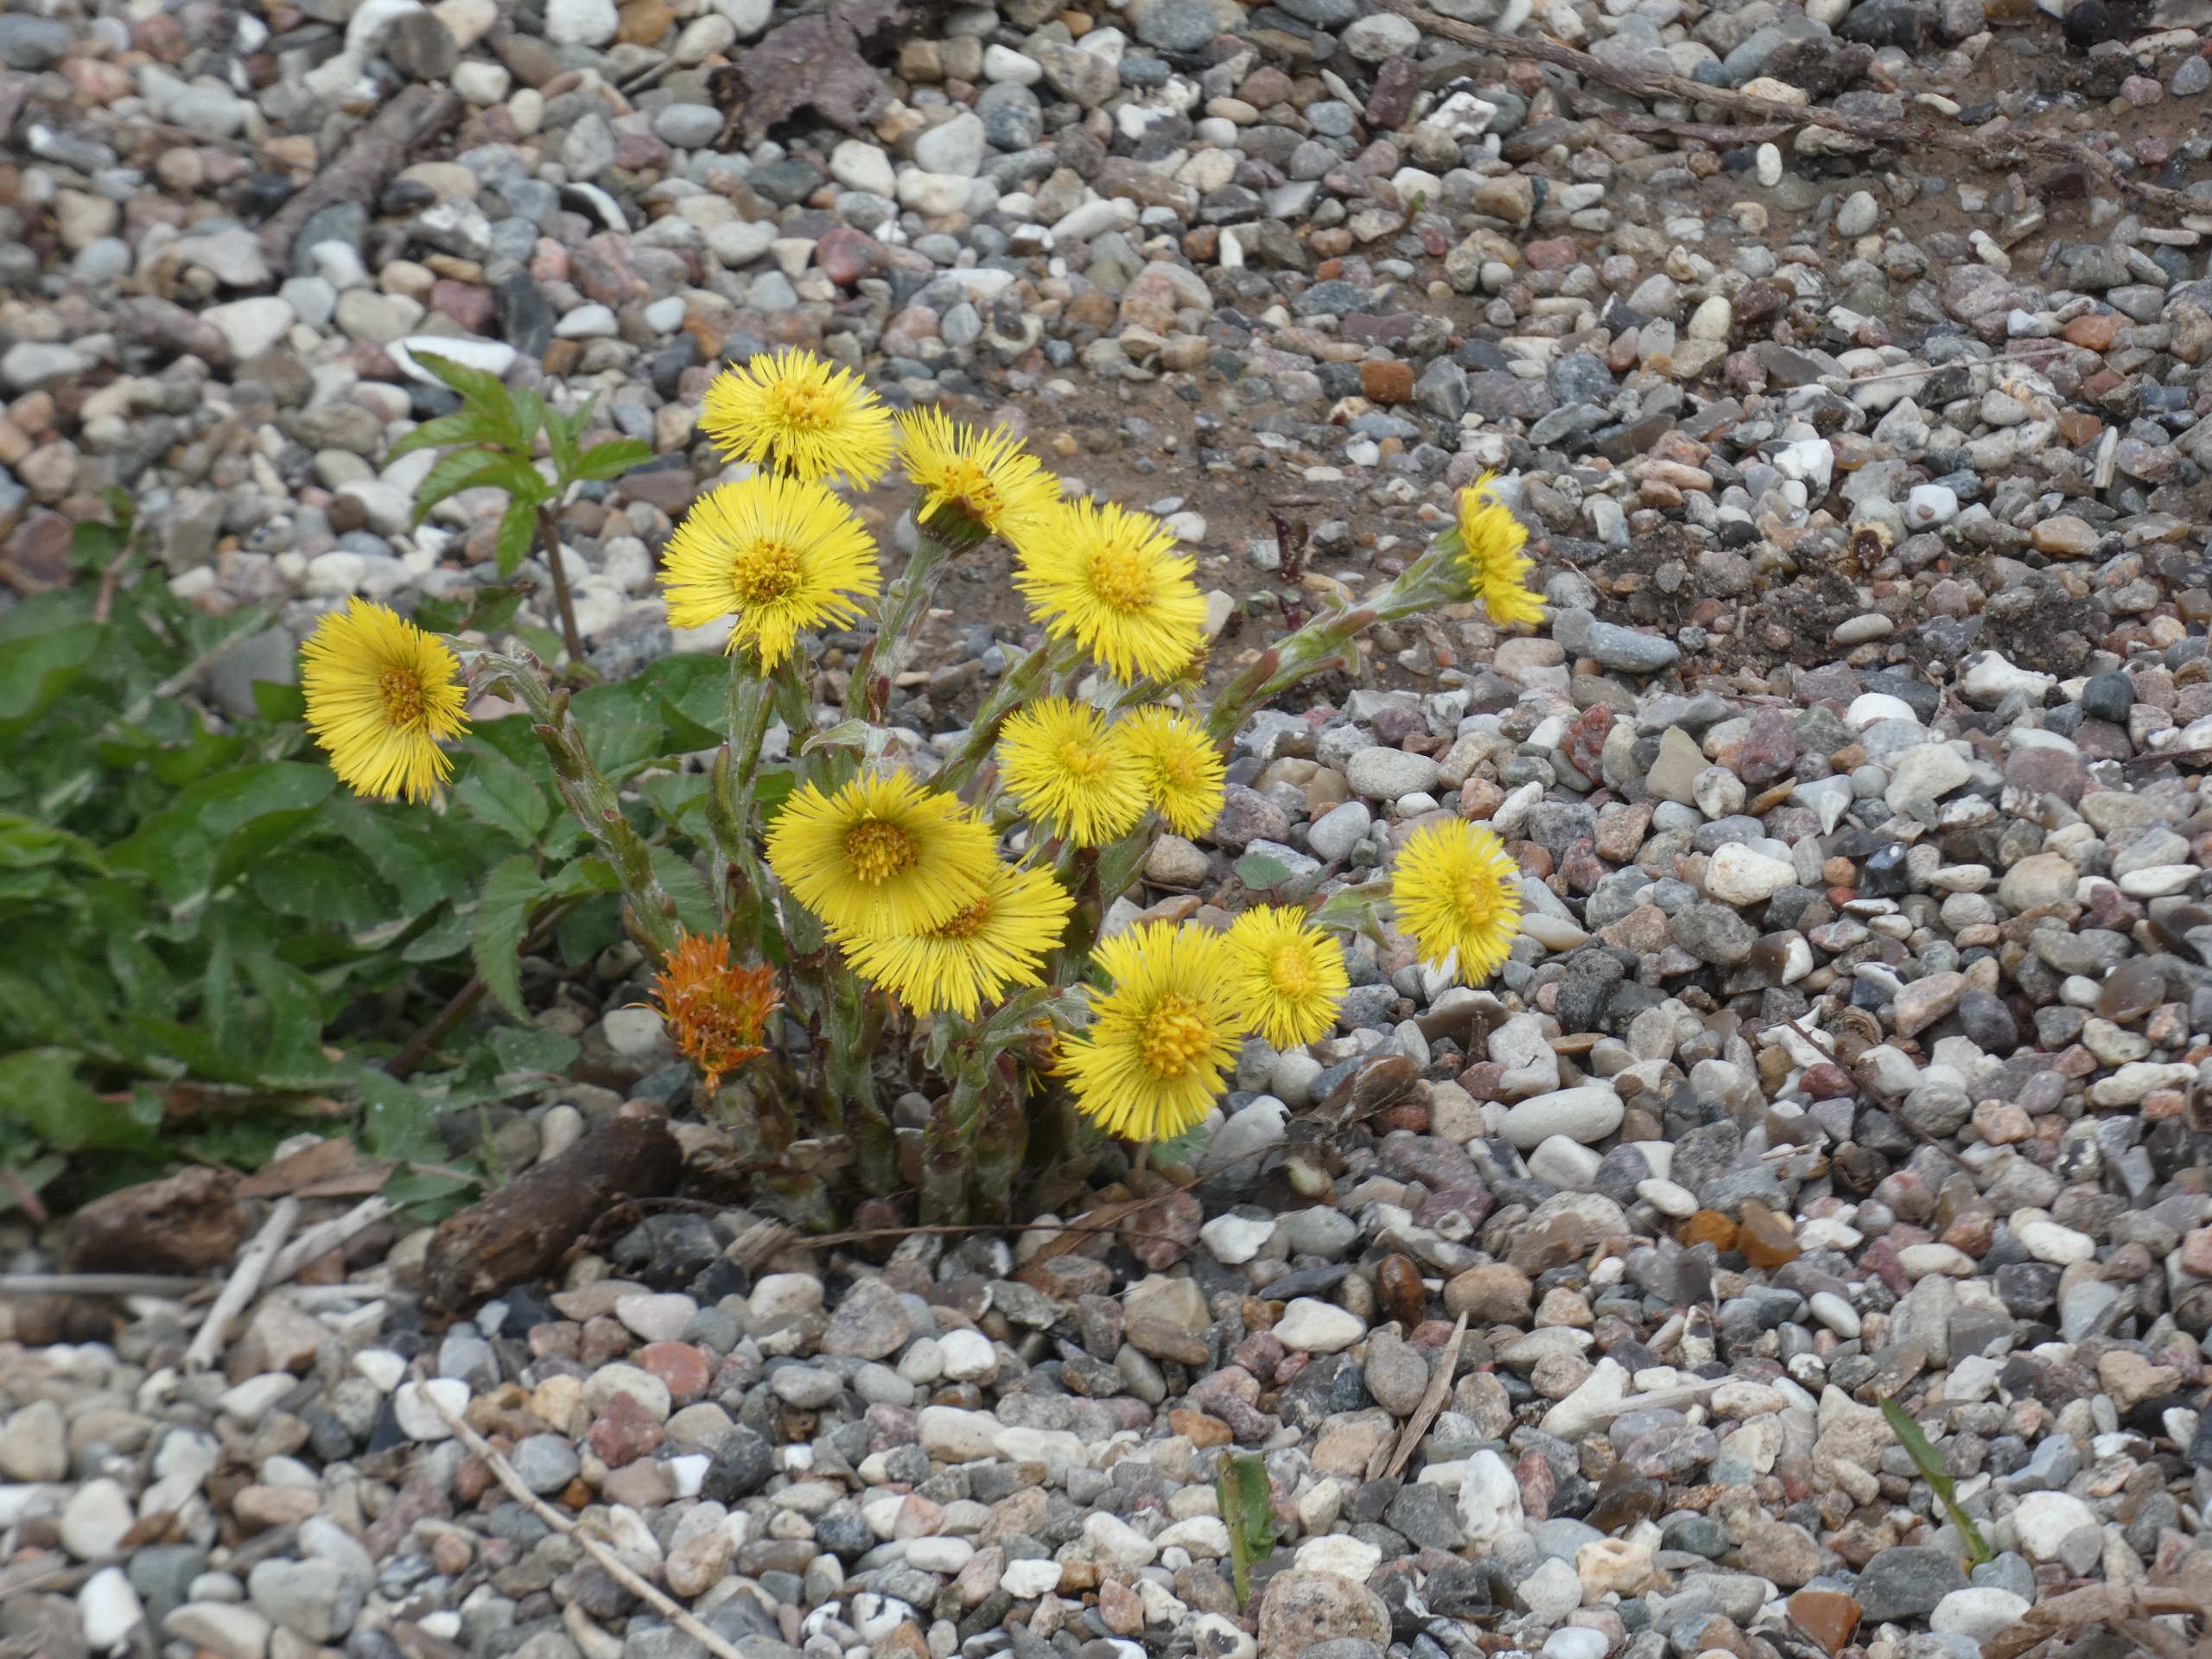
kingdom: Plantae
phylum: Tracheophyta
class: Magnoliopsida
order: Asterales
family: Asteraceae
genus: Tussilago
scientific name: Tussilago farfara
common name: Følfod
